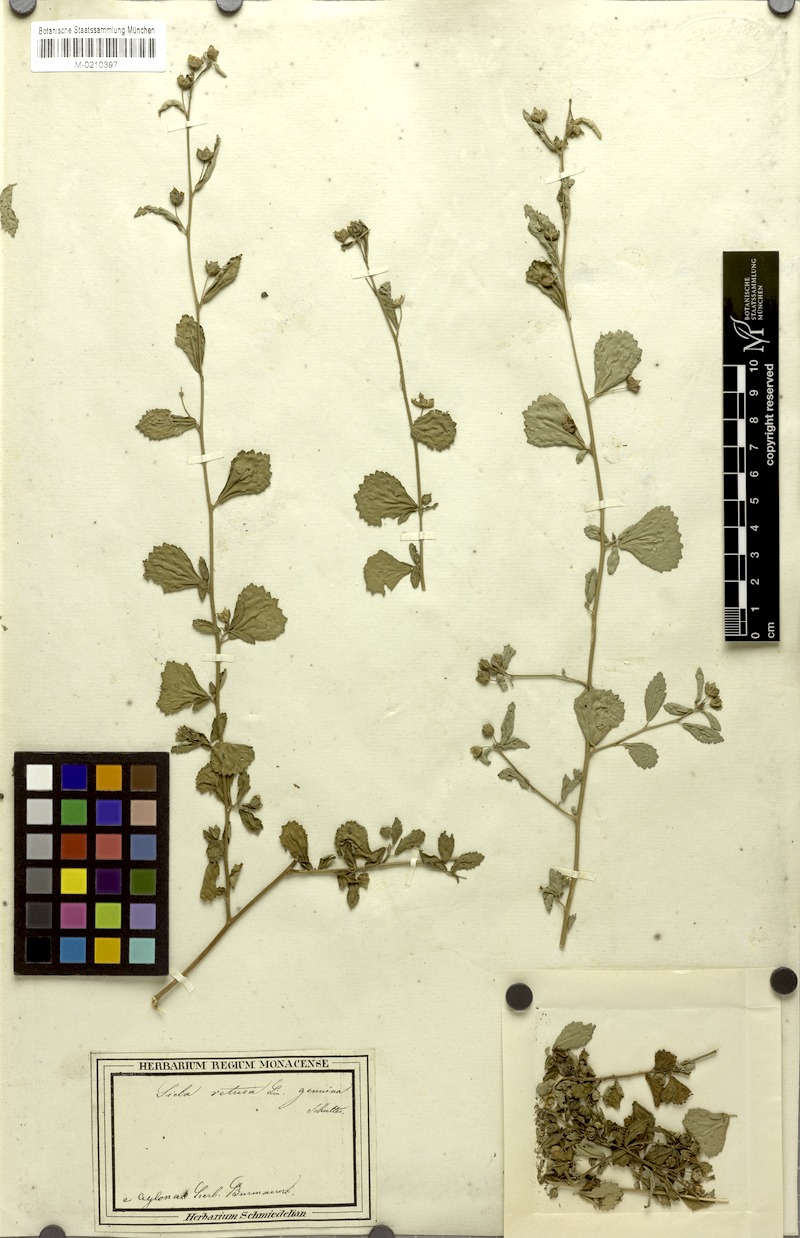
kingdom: Plantae
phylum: Tracheophyta
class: Magnoliopsida
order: Malvales
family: Malvaceae
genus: Sida
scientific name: Sida alnifolia
